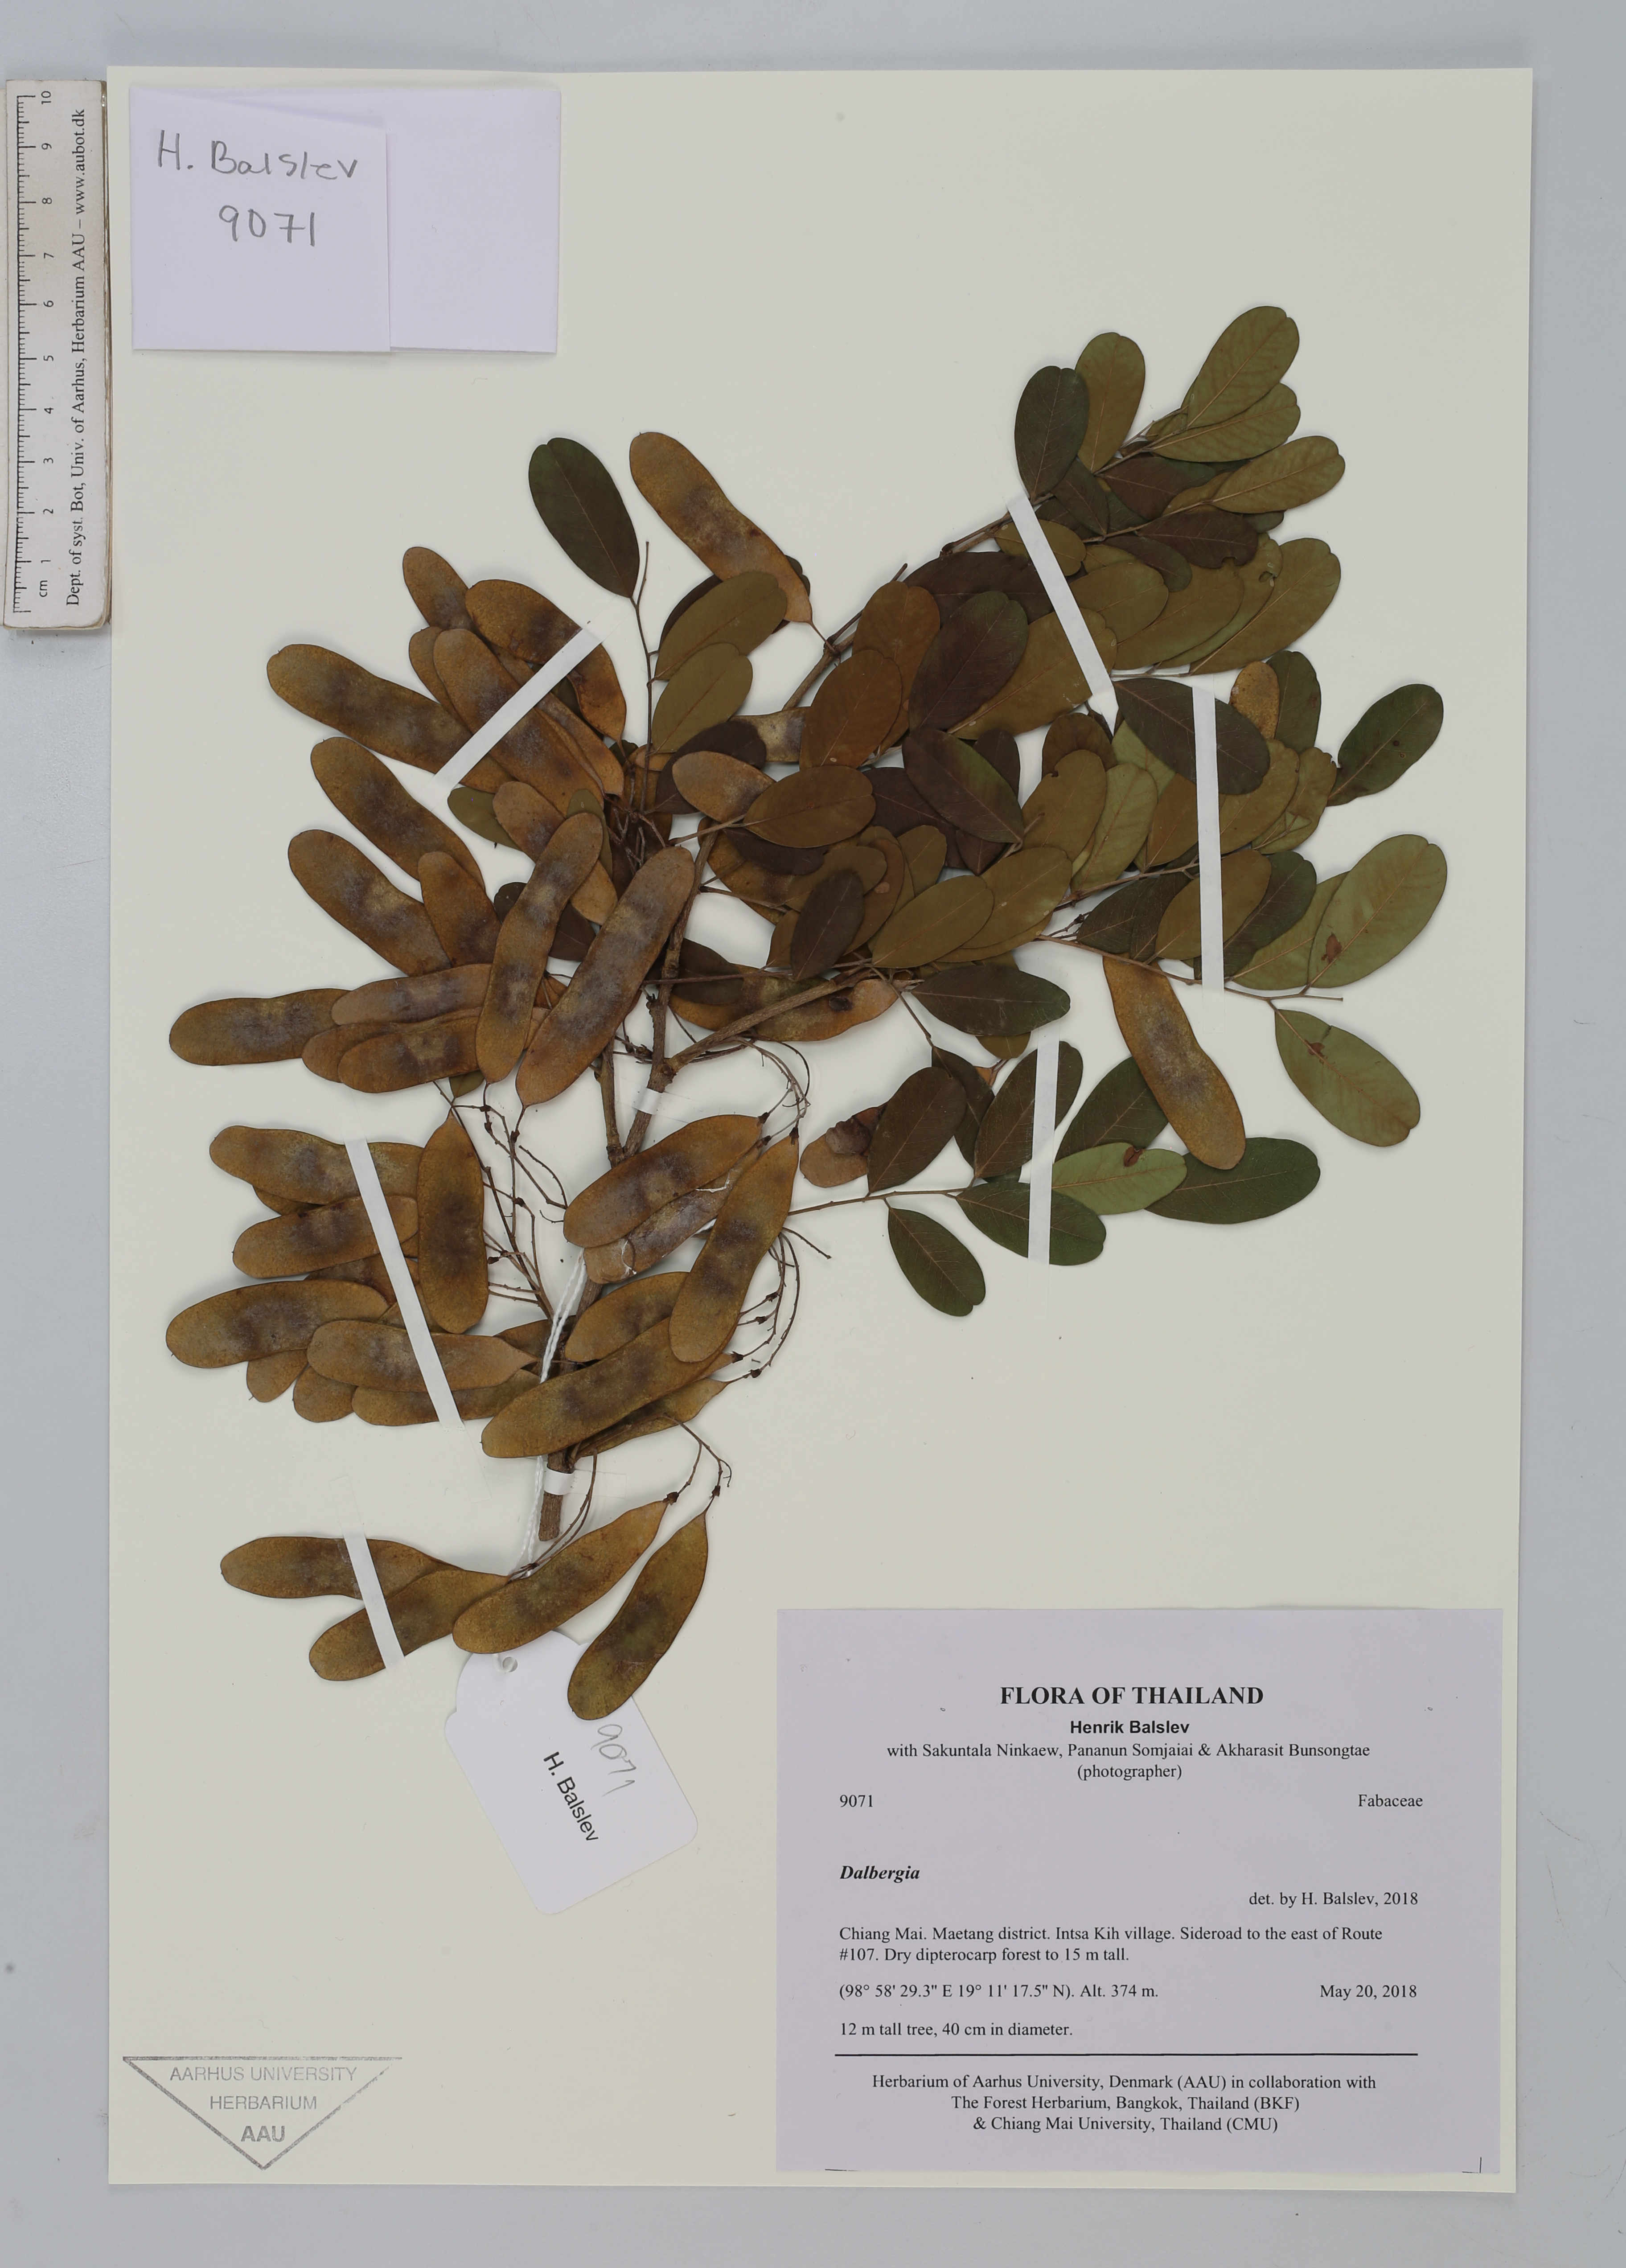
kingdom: Plantae
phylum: Tracheophyta
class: Magnoliopsida
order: Fabales
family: Fabaceae
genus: Dalbergia
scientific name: Dalbergia
